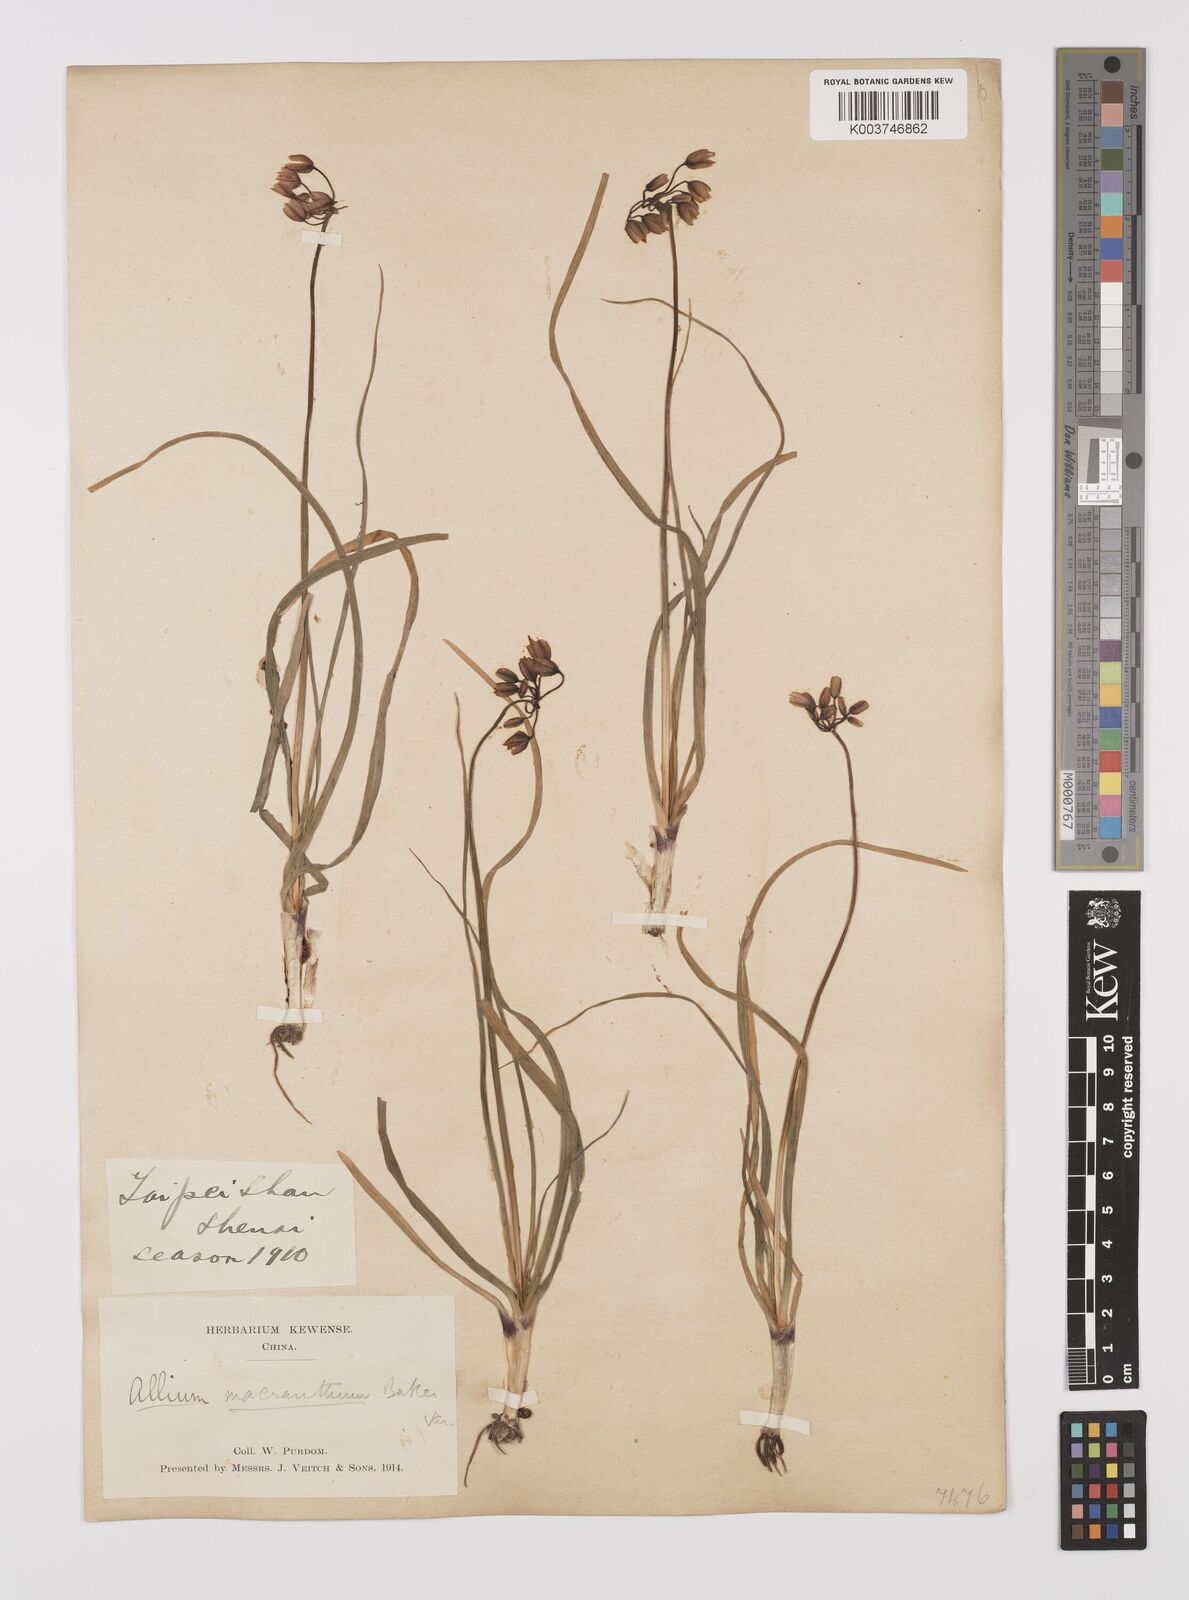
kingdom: Plantae
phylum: Tracheophyta
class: Liliopsida
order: Asparagales
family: Amaryllidaceae
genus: Allium
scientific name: Allium macranthum
